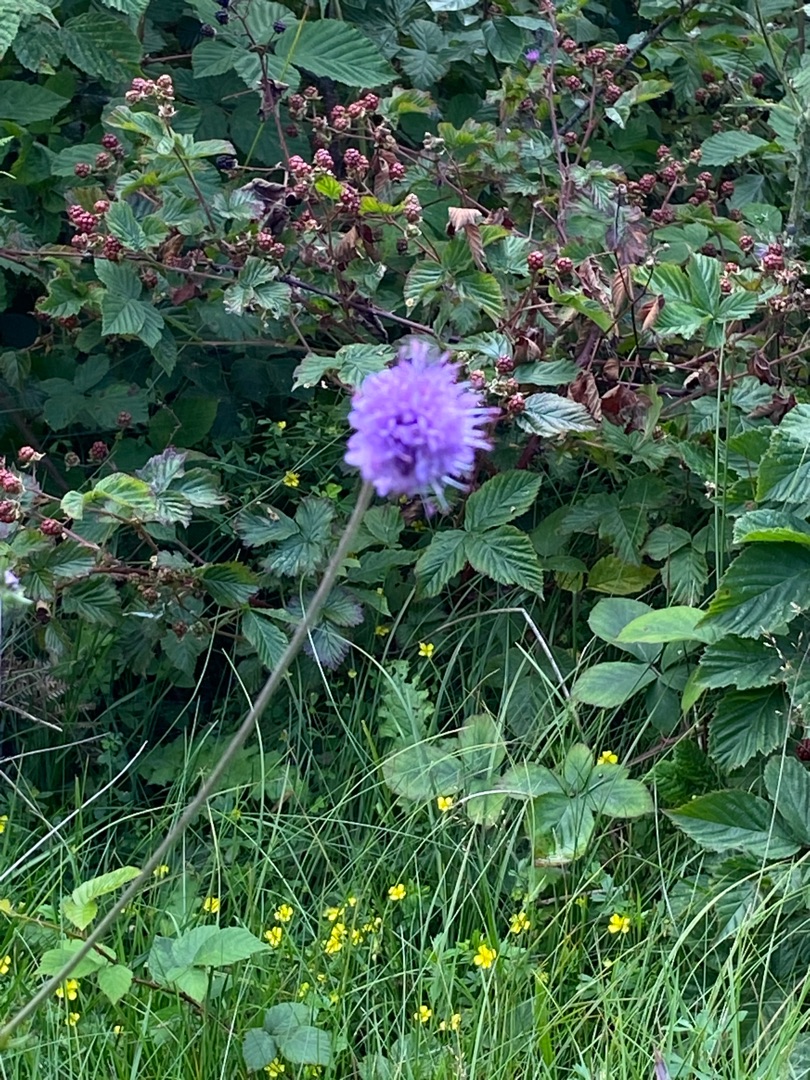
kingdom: Plantae
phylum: Tracheophyta
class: Magnoliopsida
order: Dipsacales
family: Caprifoliaceae
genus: Succisa
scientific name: Succisa pratensis
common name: Djævelsbid
